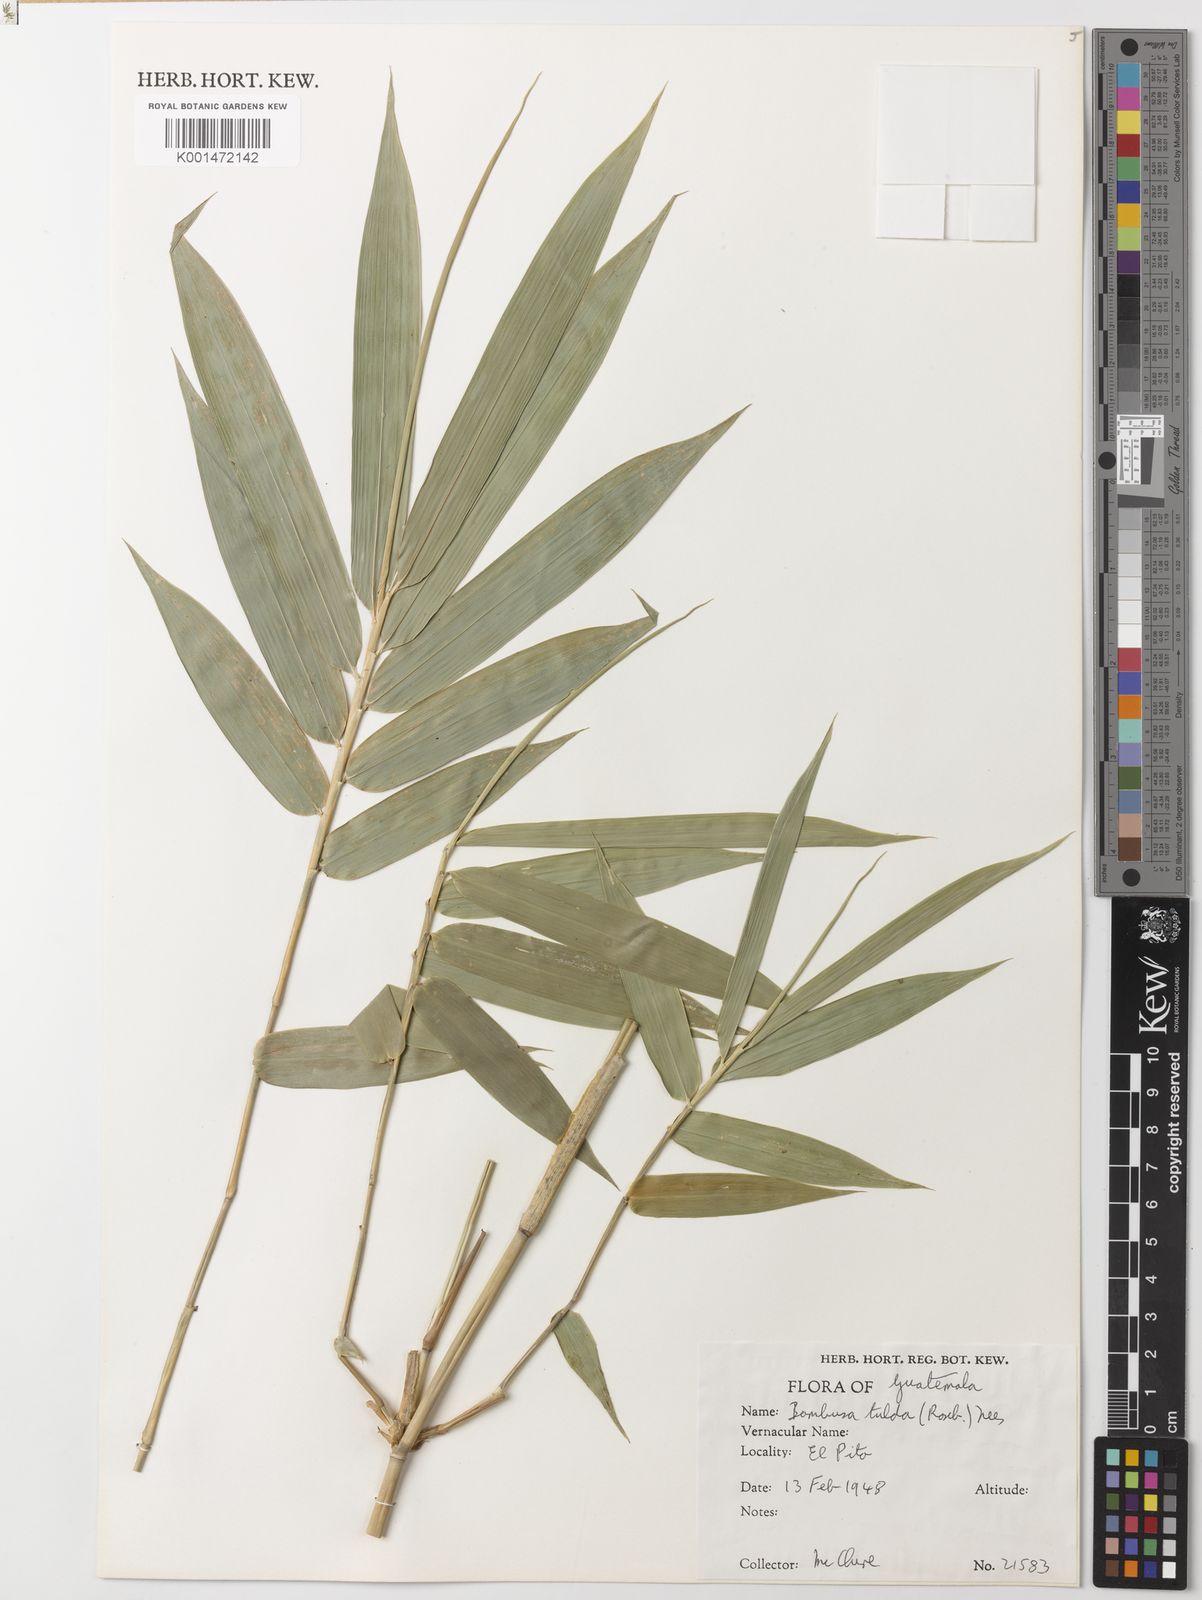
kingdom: Plantae
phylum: Tracheophyta
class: Liliopsida
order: Poales
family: Poaceae
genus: Bambusa
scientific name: Bambusa tulda
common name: Bengal bamboo
